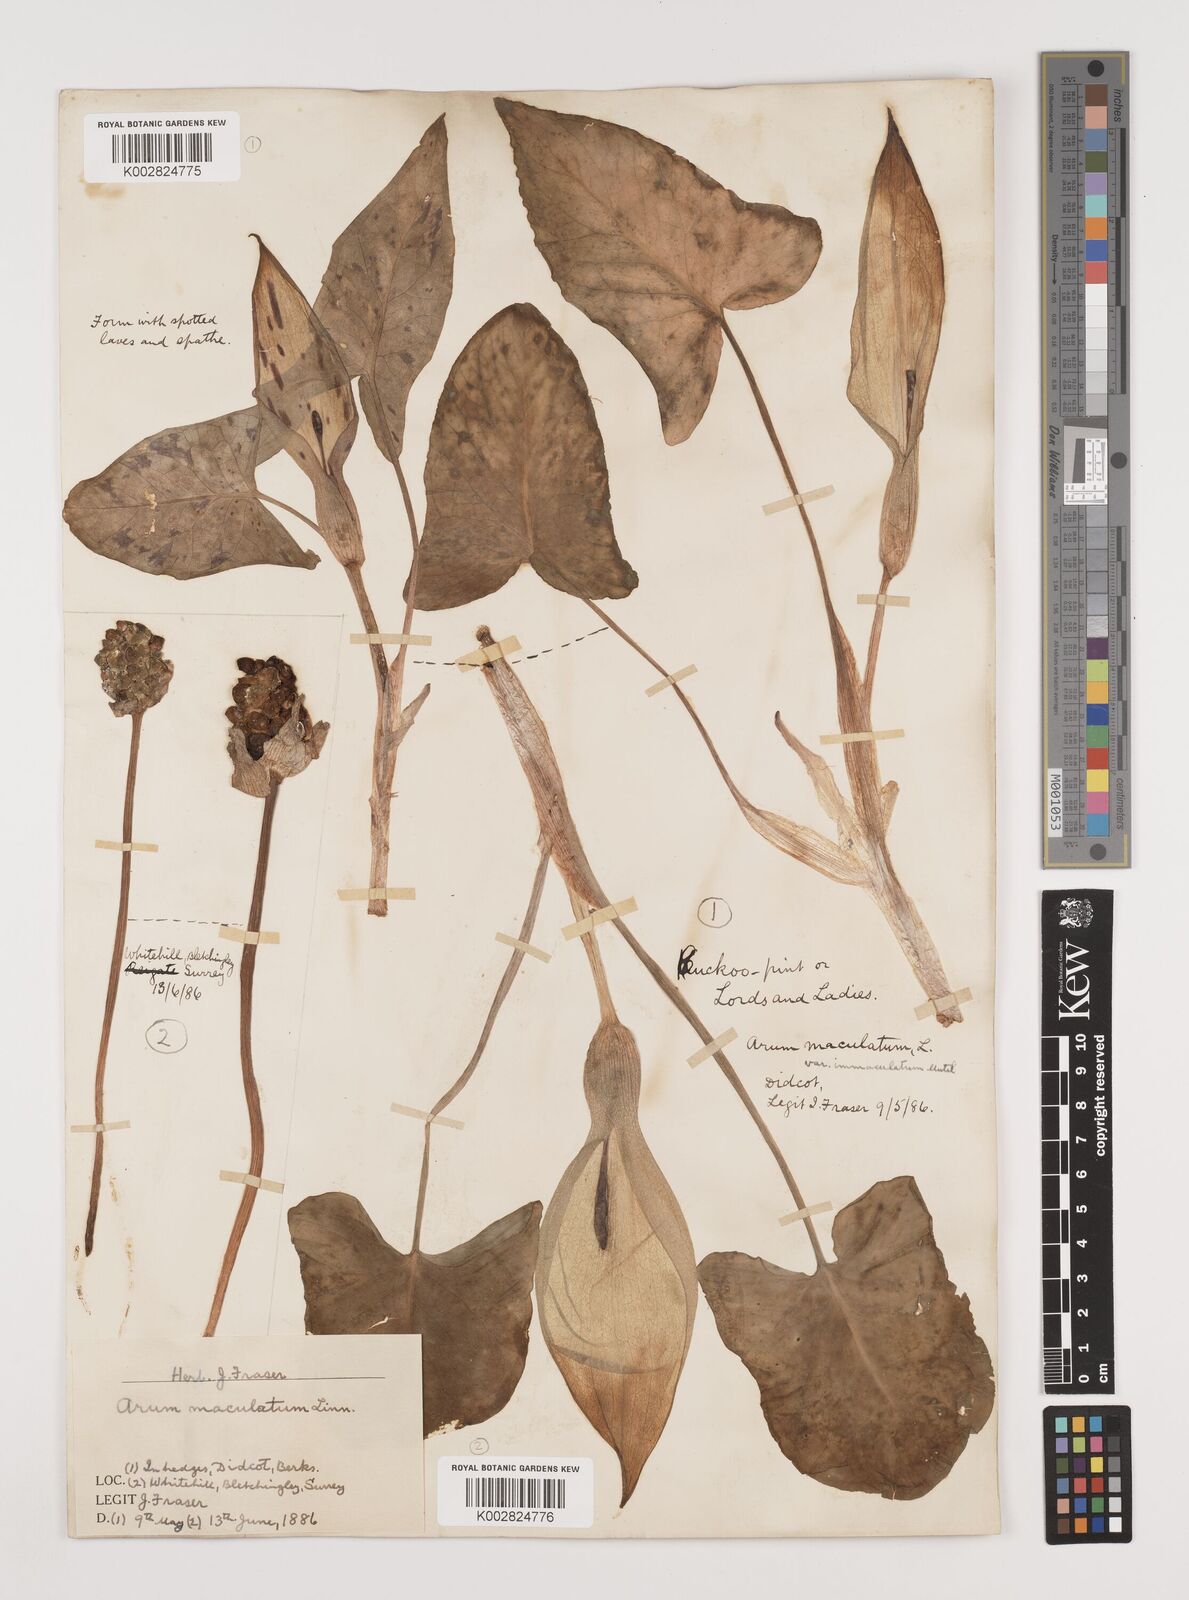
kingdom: Plantae
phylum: Tracheophyta
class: Liliopsida
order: Alismatales
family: Araceae
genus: Arum
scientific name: Arum maculatum
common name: Lords-and-ladies
